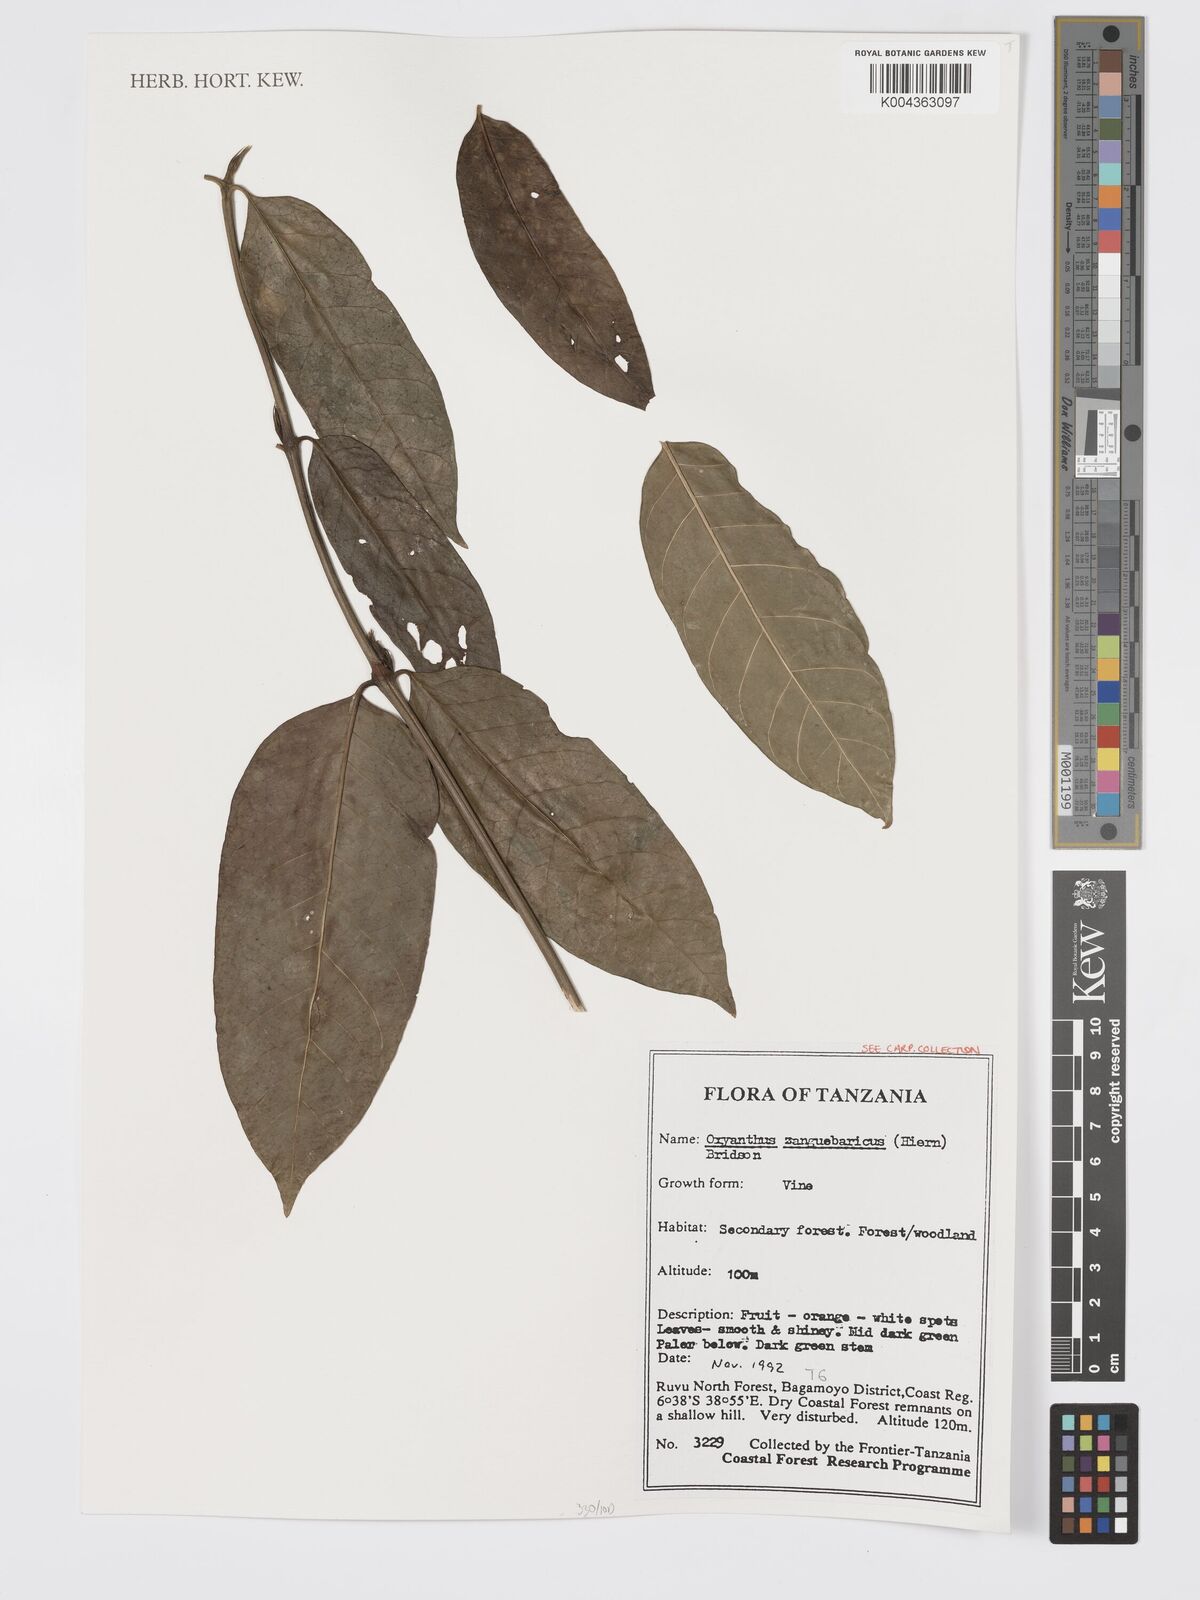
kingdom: Plantae
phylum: Tracheophyta
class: Magnoliopsida
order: Gentianales
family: Rubiaceae
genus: Oxyanthus
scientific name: Oxyanthus zanguebaricus
